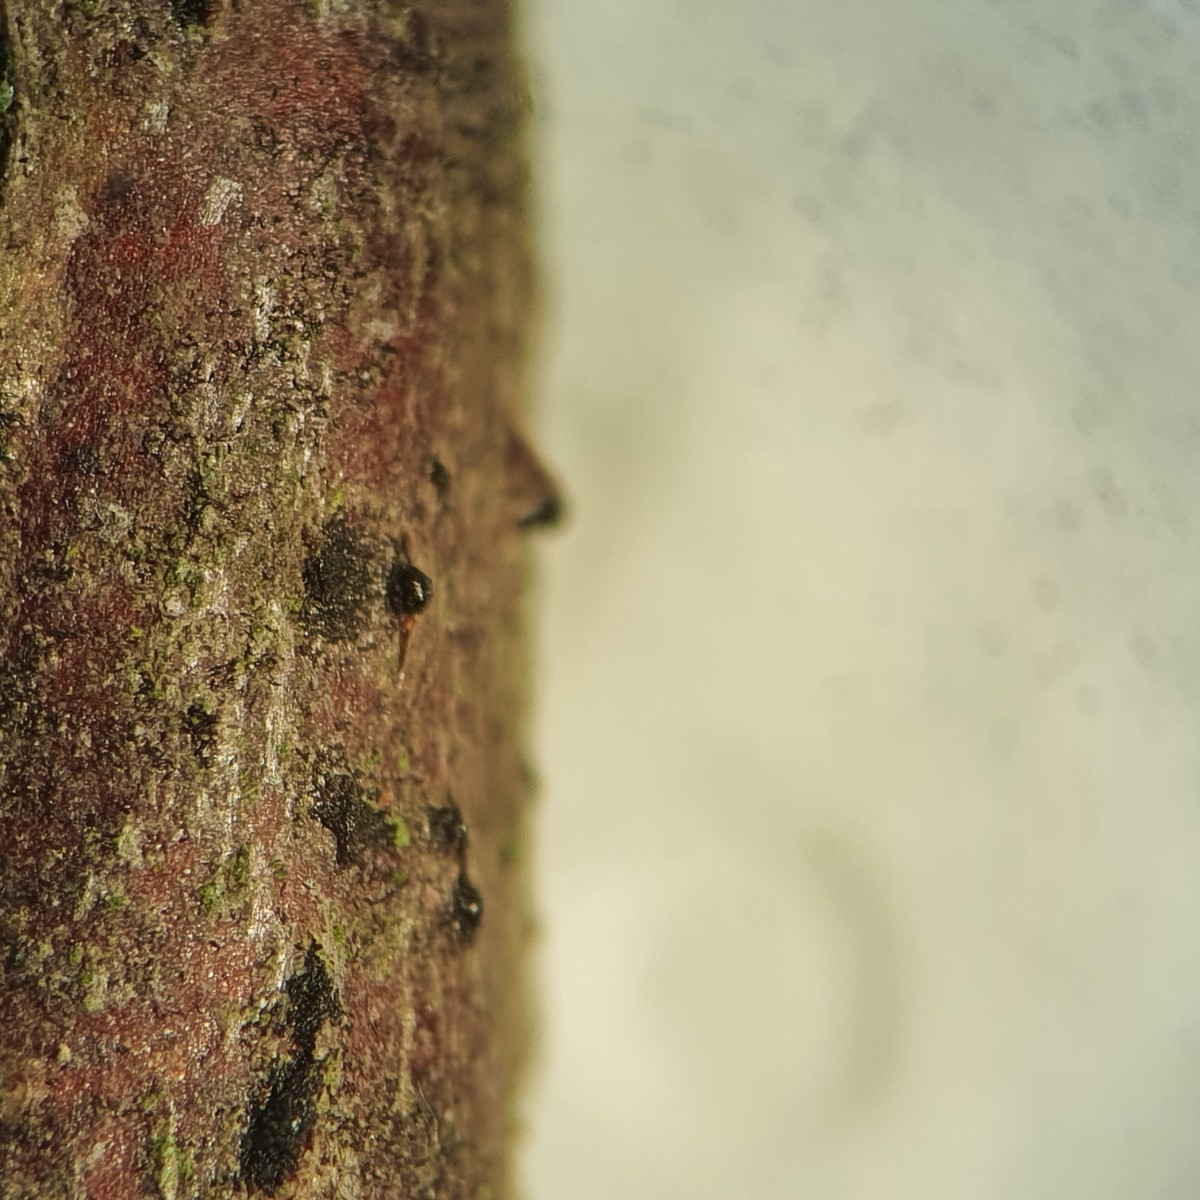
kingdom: Fungi
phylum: Ascomycota
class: Dothideomycetes
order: Pleosporales
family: Pleomassariaceae
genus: Pleomassaria
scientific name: Pleomassaria siparia
